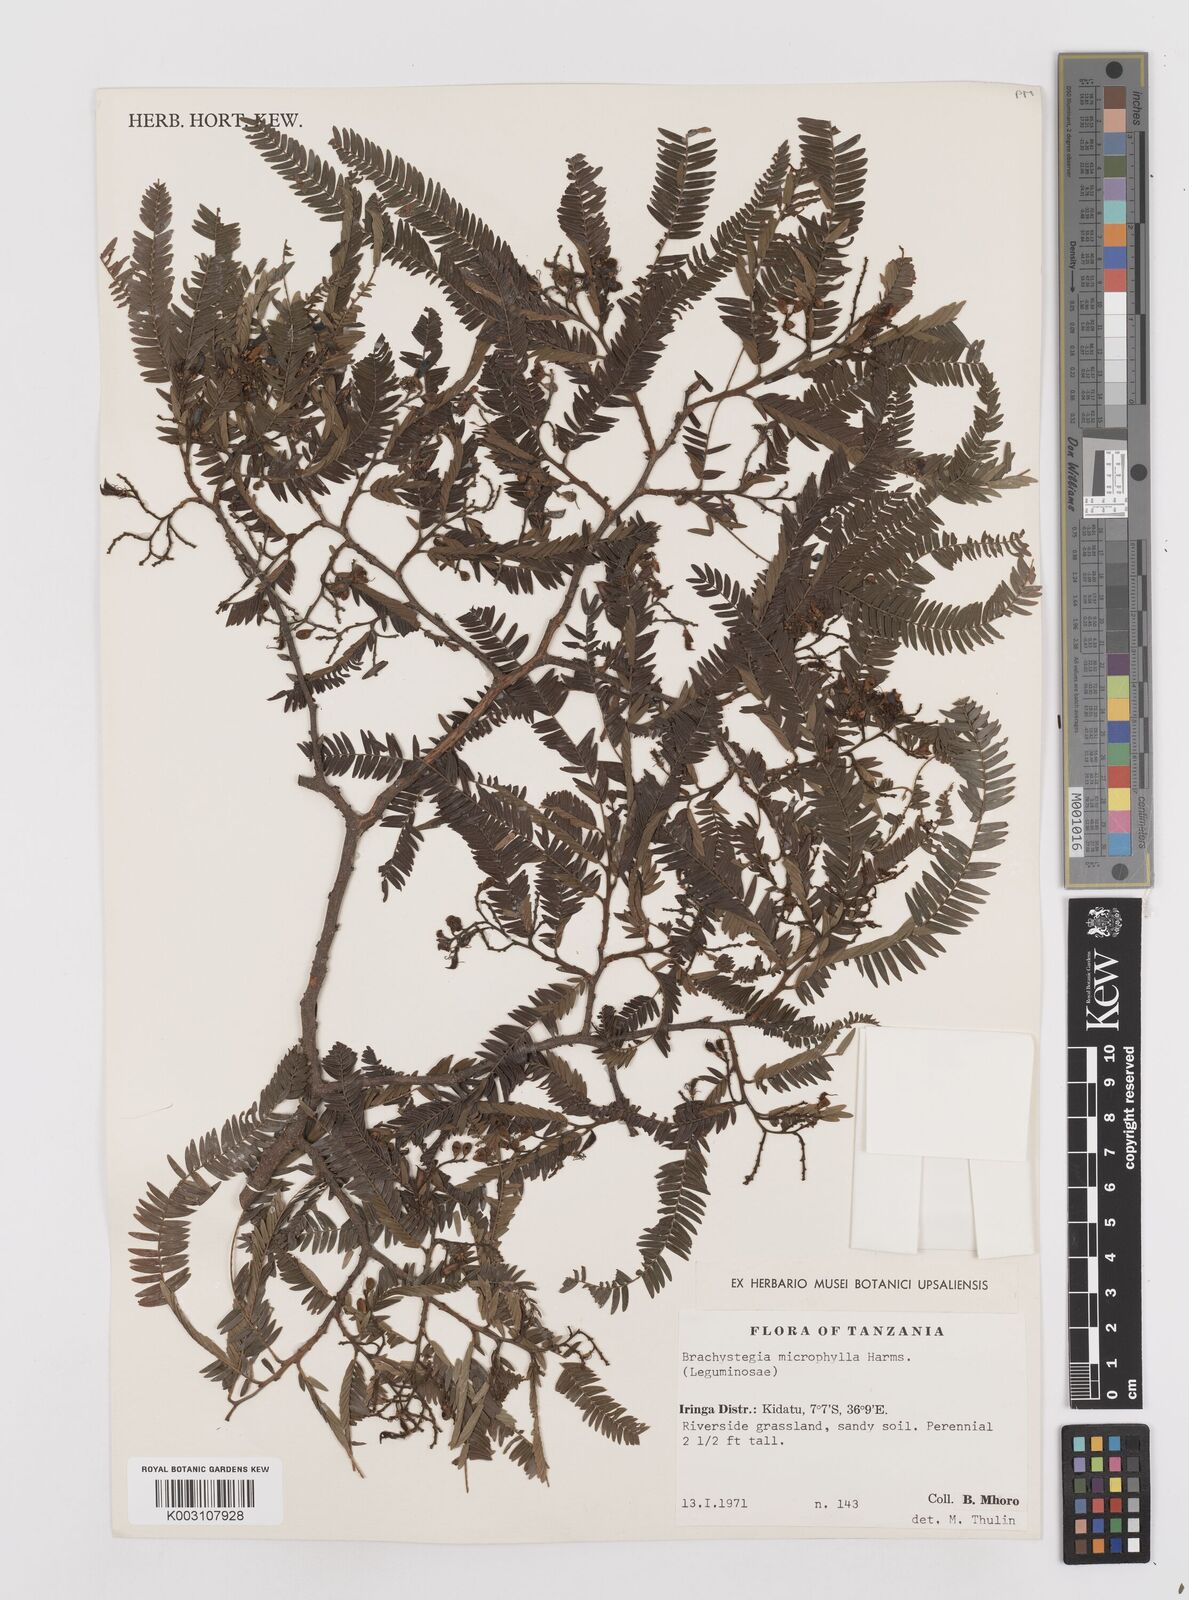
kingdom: Plantae
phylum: Tracheophyta
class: Magnoliopsida
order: Fabales
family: Fabaceae
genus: Brachystegia
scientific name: Brachystegia tamarindoides
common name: Mountain acacia
